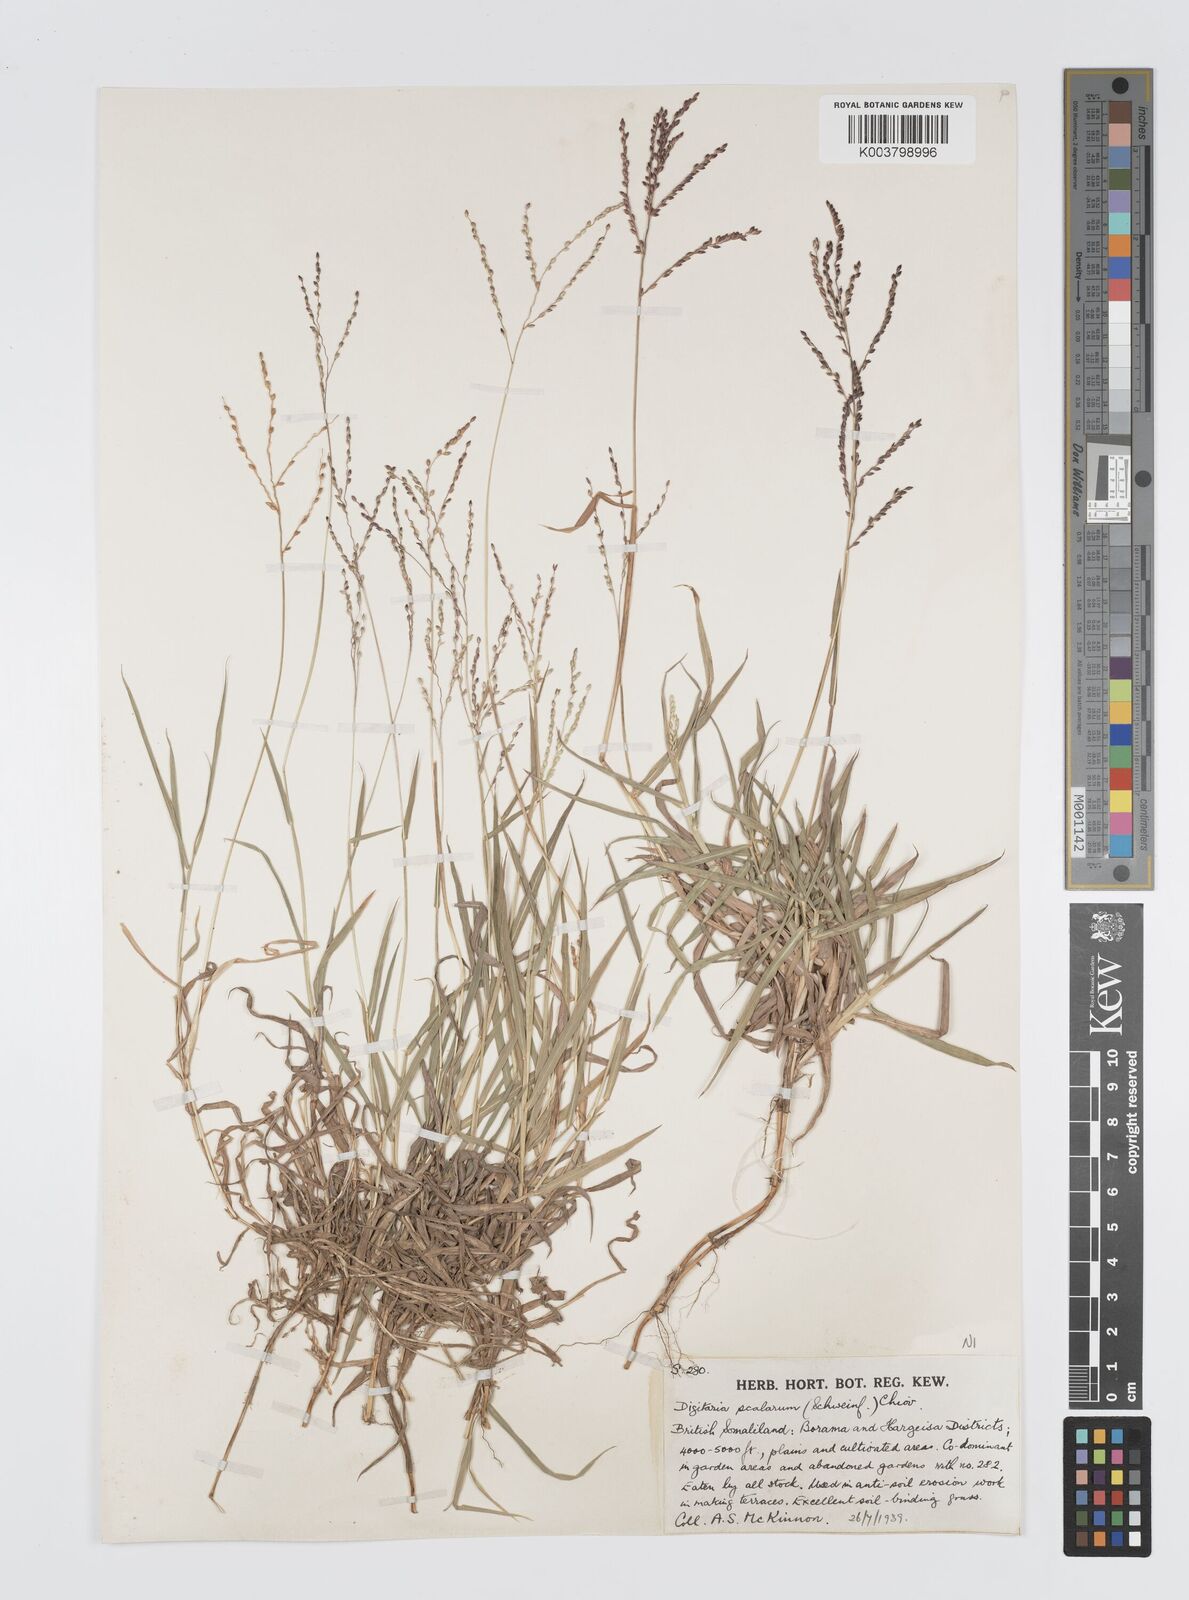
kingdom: Plantae
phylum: Tracheophyta
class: Liliopsida
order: Poales
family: Poaceae
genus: Digitaria
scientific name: Digitaria abyssinica
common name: African couchgrass
